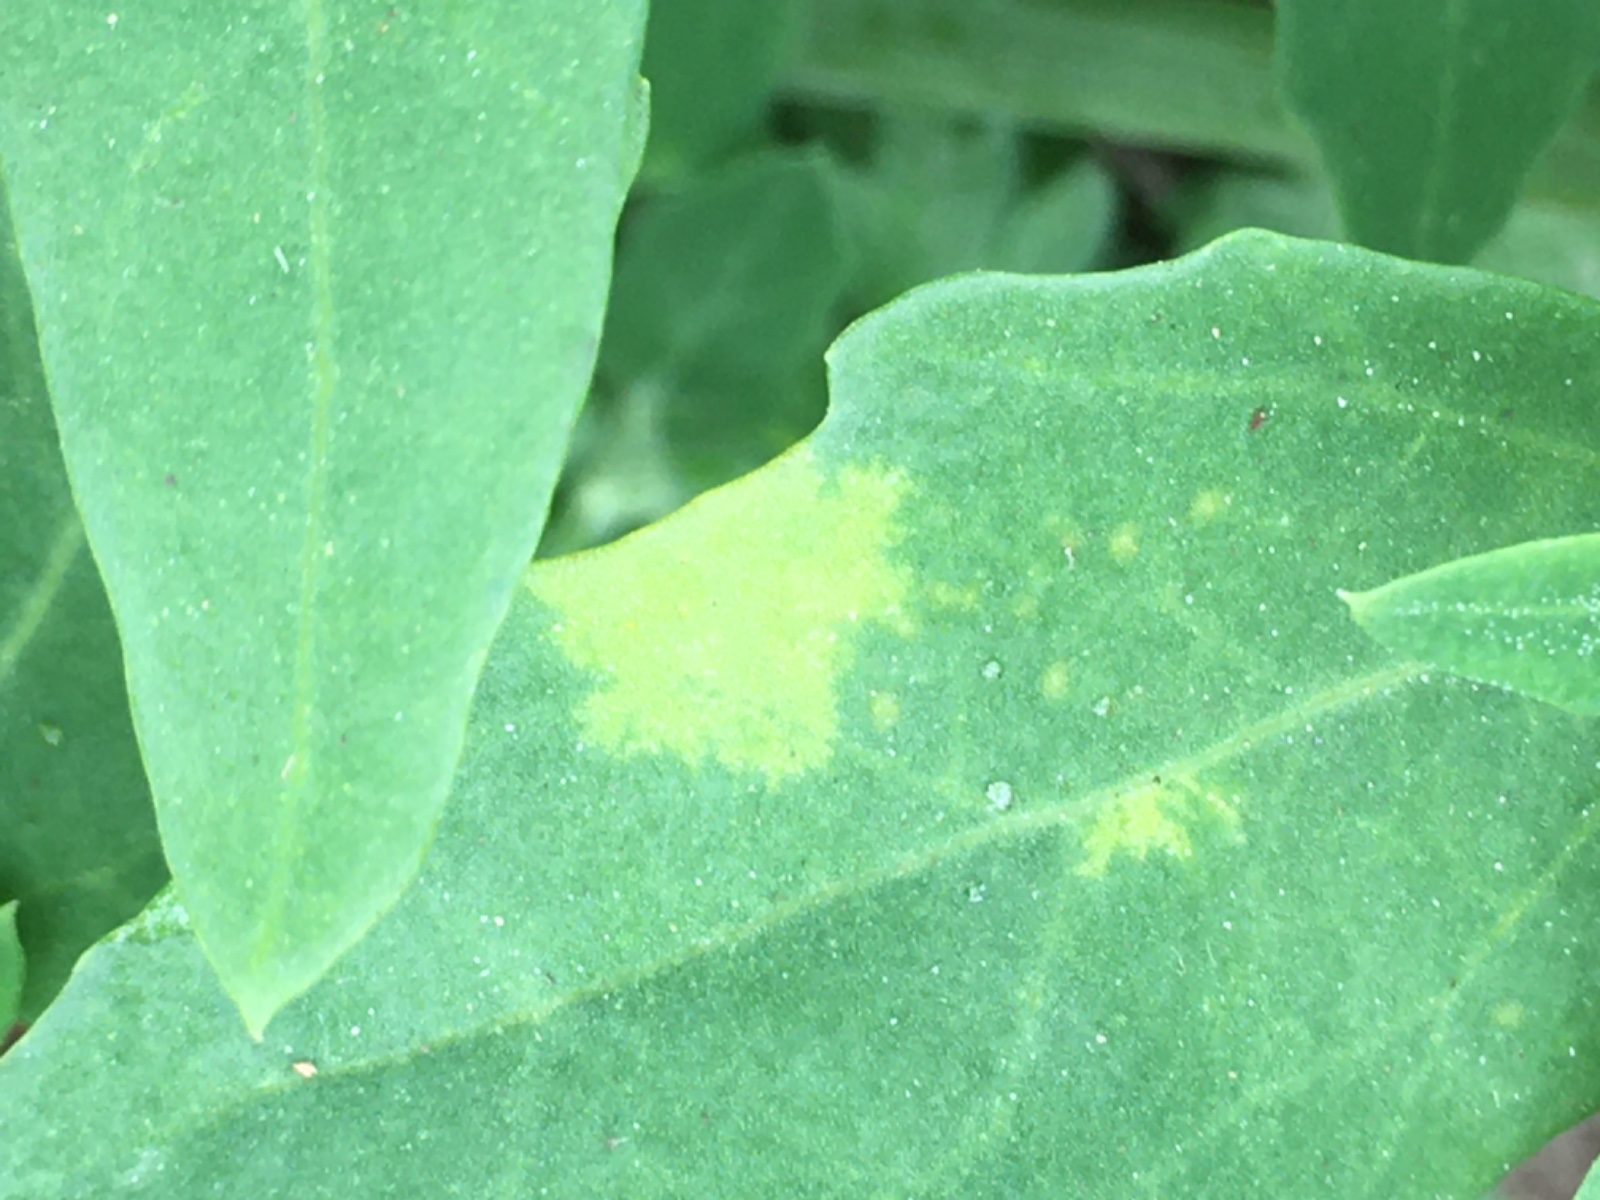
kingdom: Chromista
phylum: Oomycota
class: Peronosporea
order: Peronosporales
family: Peronosporaceae
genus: Peronospora
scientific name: Peronospora farinosa
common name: Beet downy mildew
